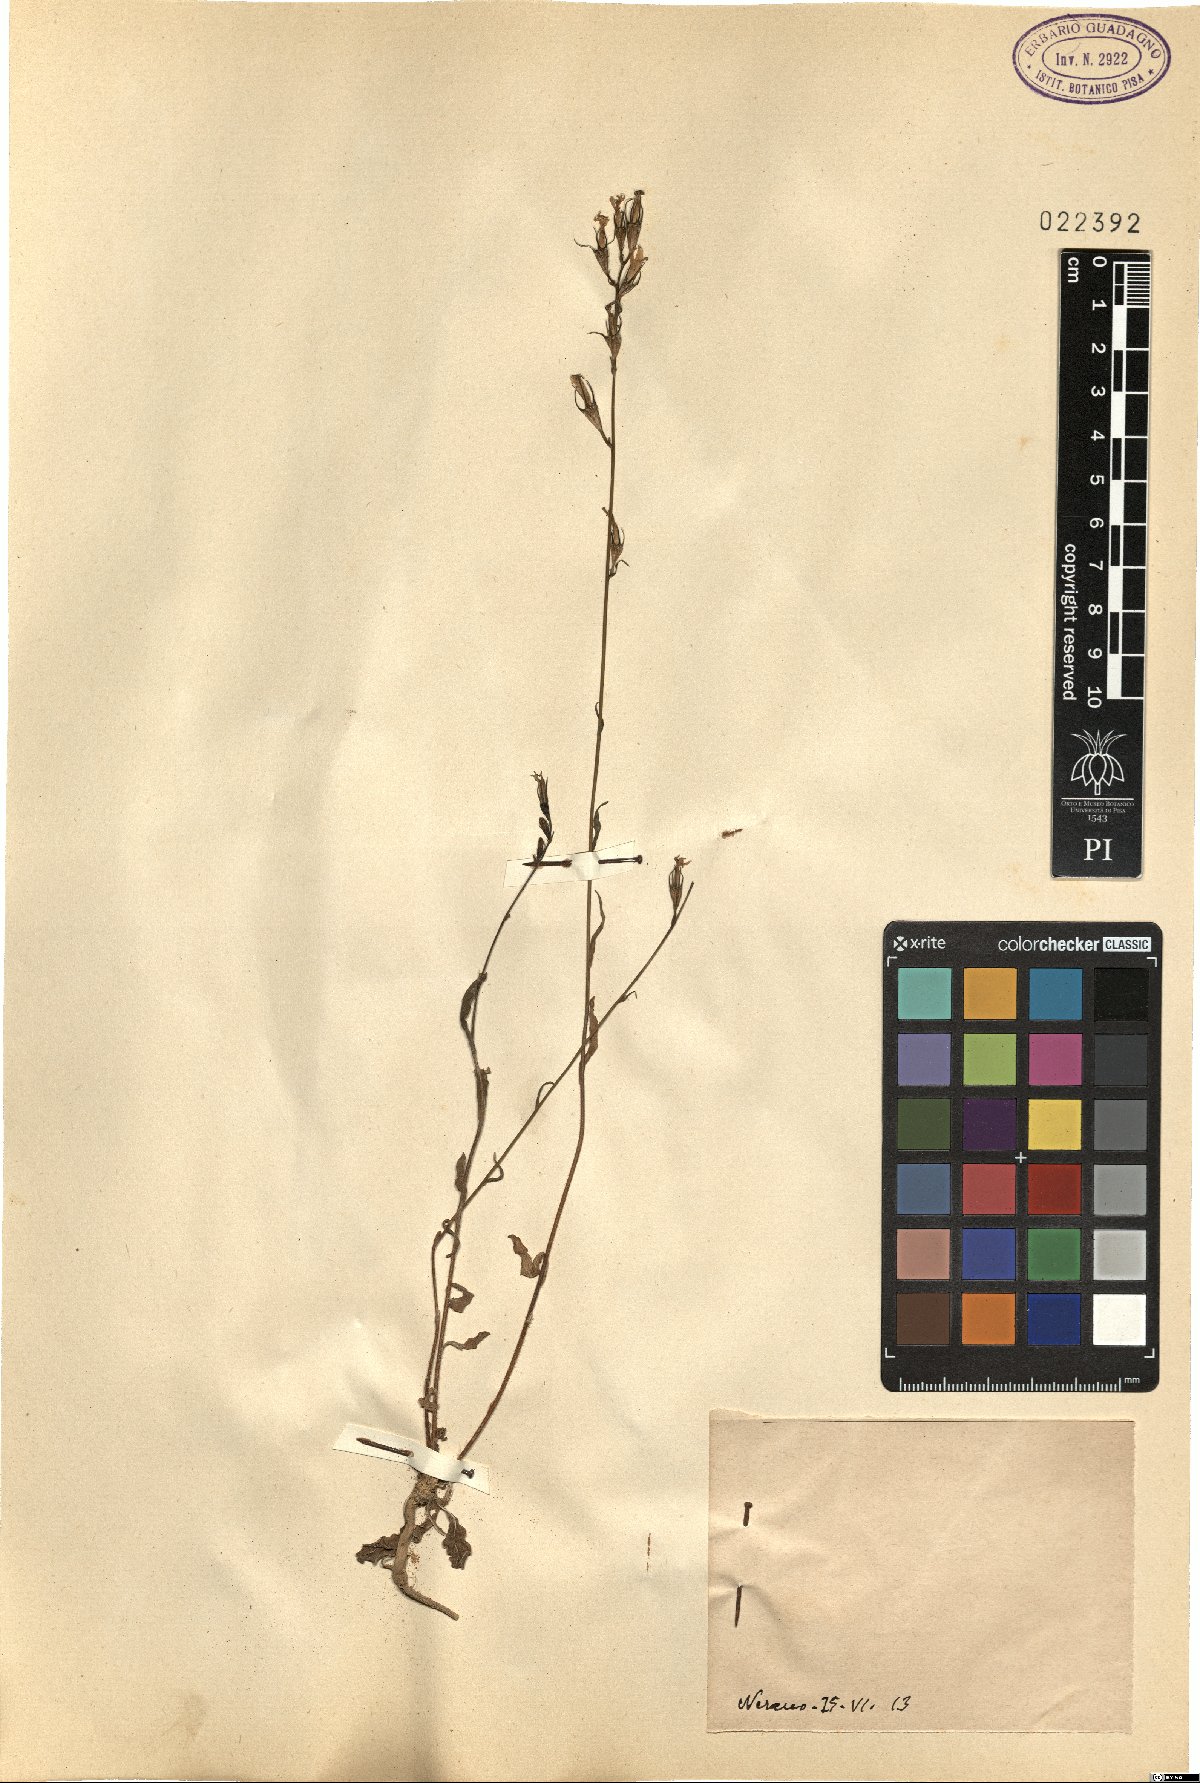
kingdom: Plantae
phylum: Tracheophyta
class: Magnoliopsida
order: Asterales
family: Campanulaceae
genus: Campanula
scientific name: Campanula
